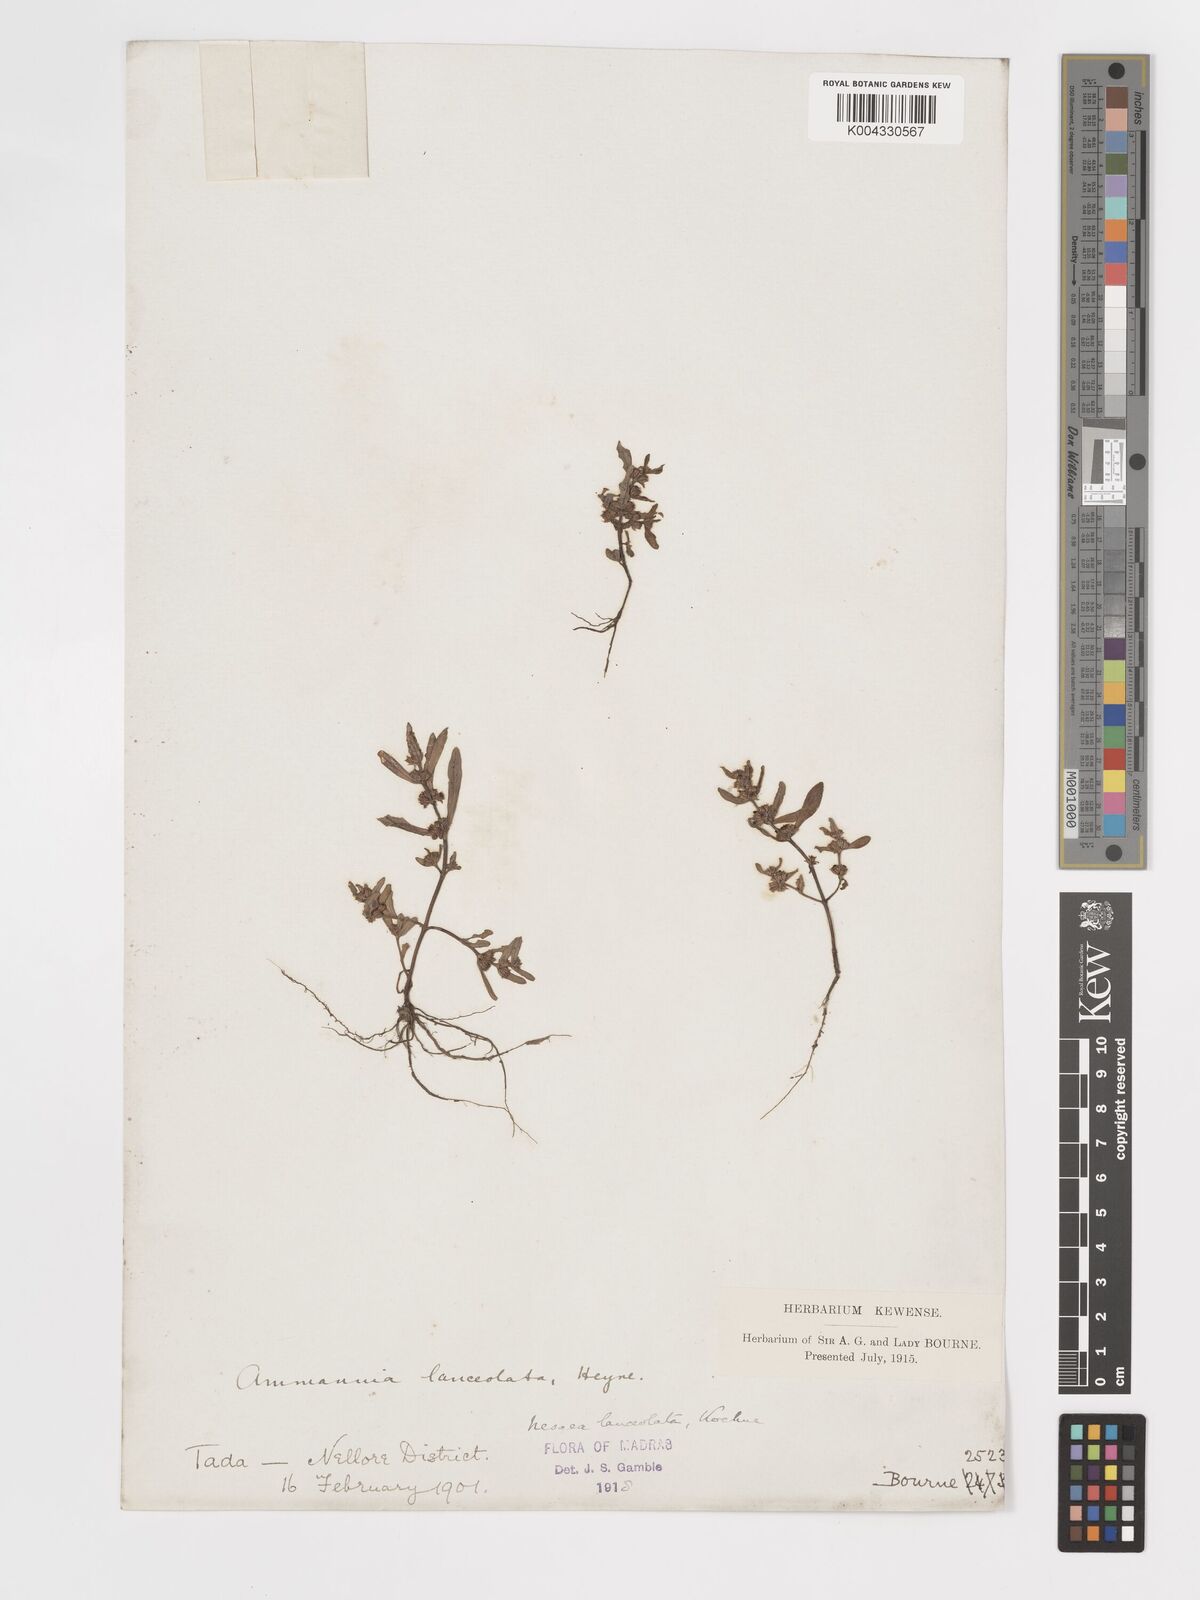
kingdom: Plantae
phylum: Tracheophyta
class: Magnoliopsida
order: Myrtales
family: Lythraceae
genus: Ammannia
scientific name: Ammannia prostrata
